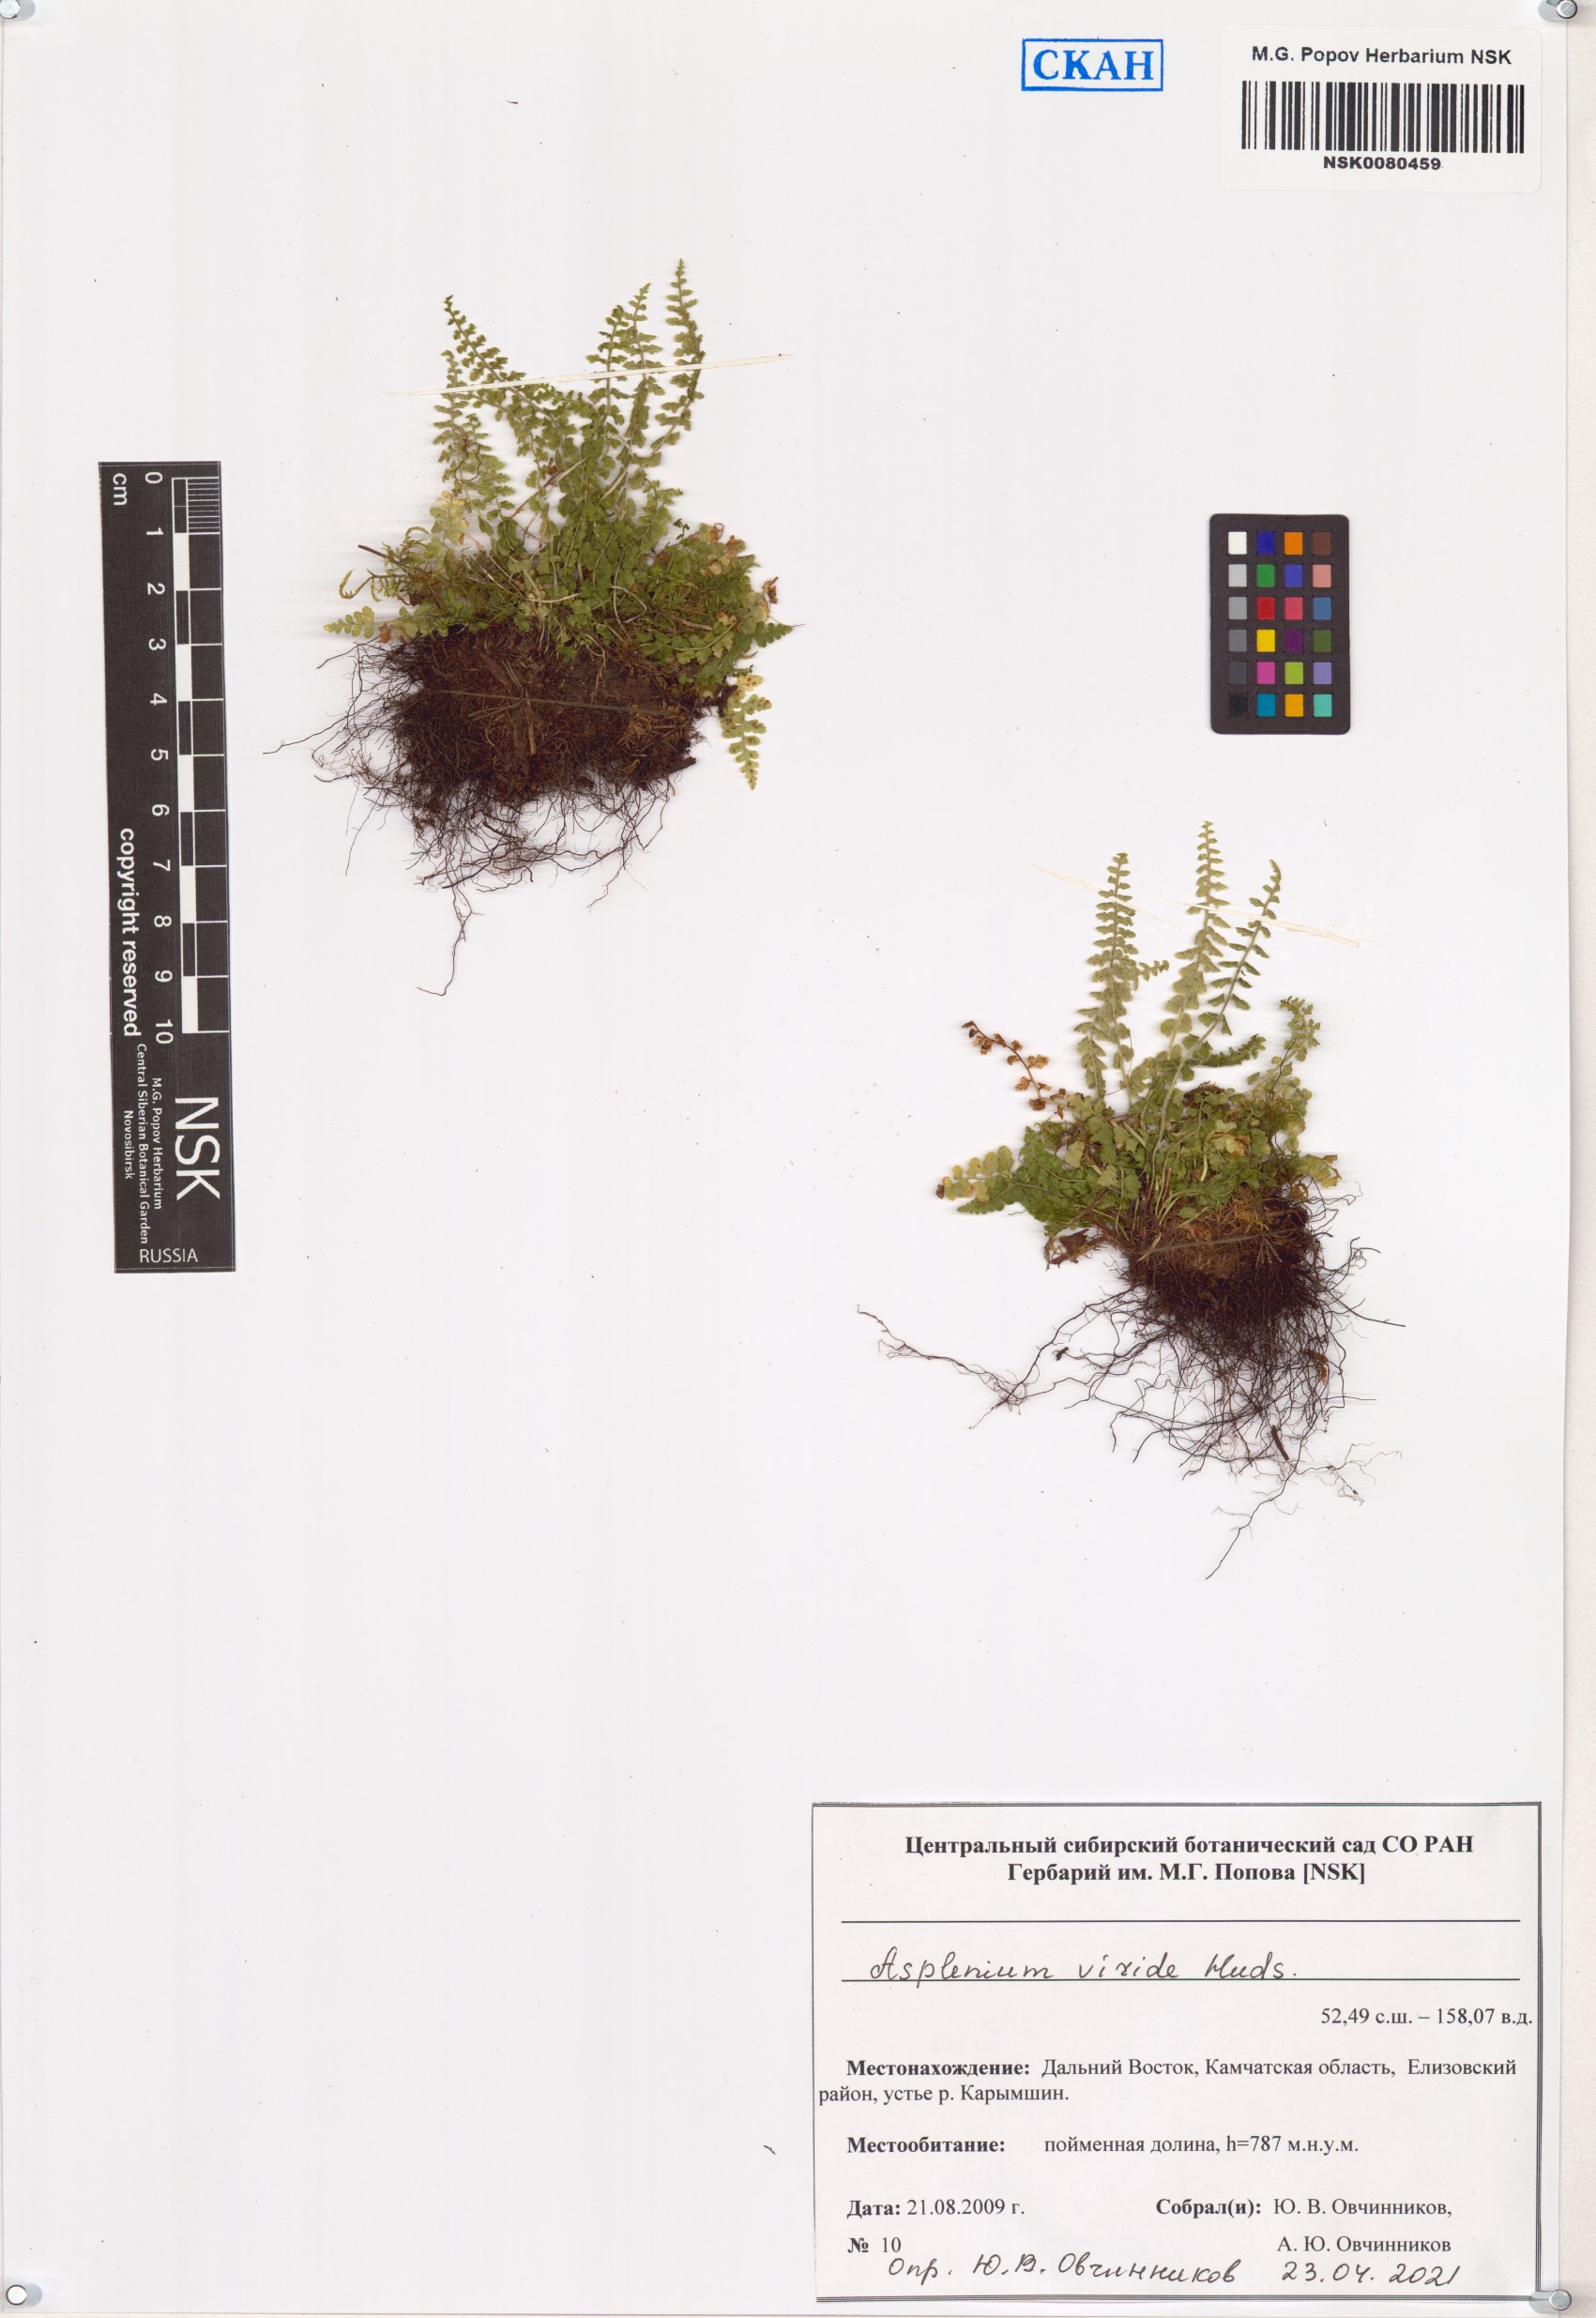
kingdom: Plantae
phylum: Tracheophyta
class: Polypodiopsida
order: Polypodiales
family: Aspleniaceae
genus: Asplenium
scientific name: Asplenium viride
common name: Green spleenwort
